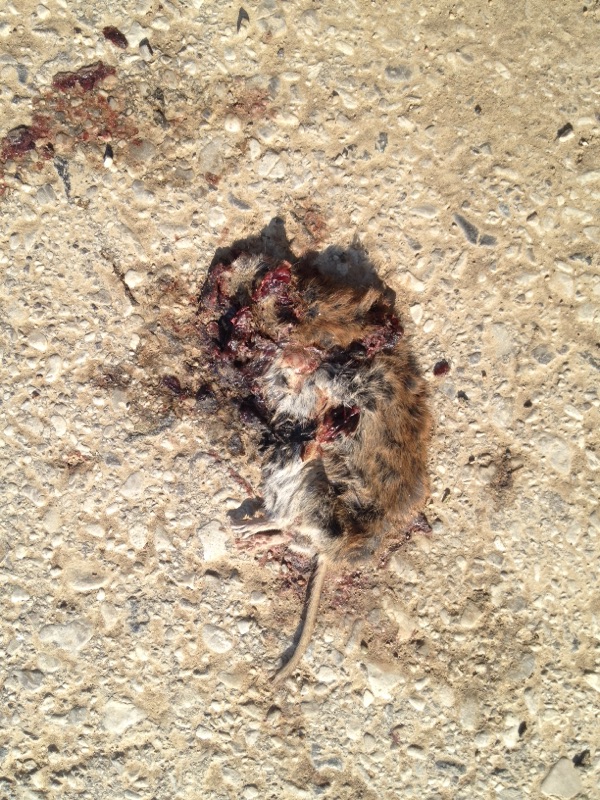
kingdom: Animalia
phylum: Chordata
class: Mammalia
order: Rodentia
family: Cricetidae
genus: Myodes
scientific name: Myodes glareolus
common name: Bank vole
